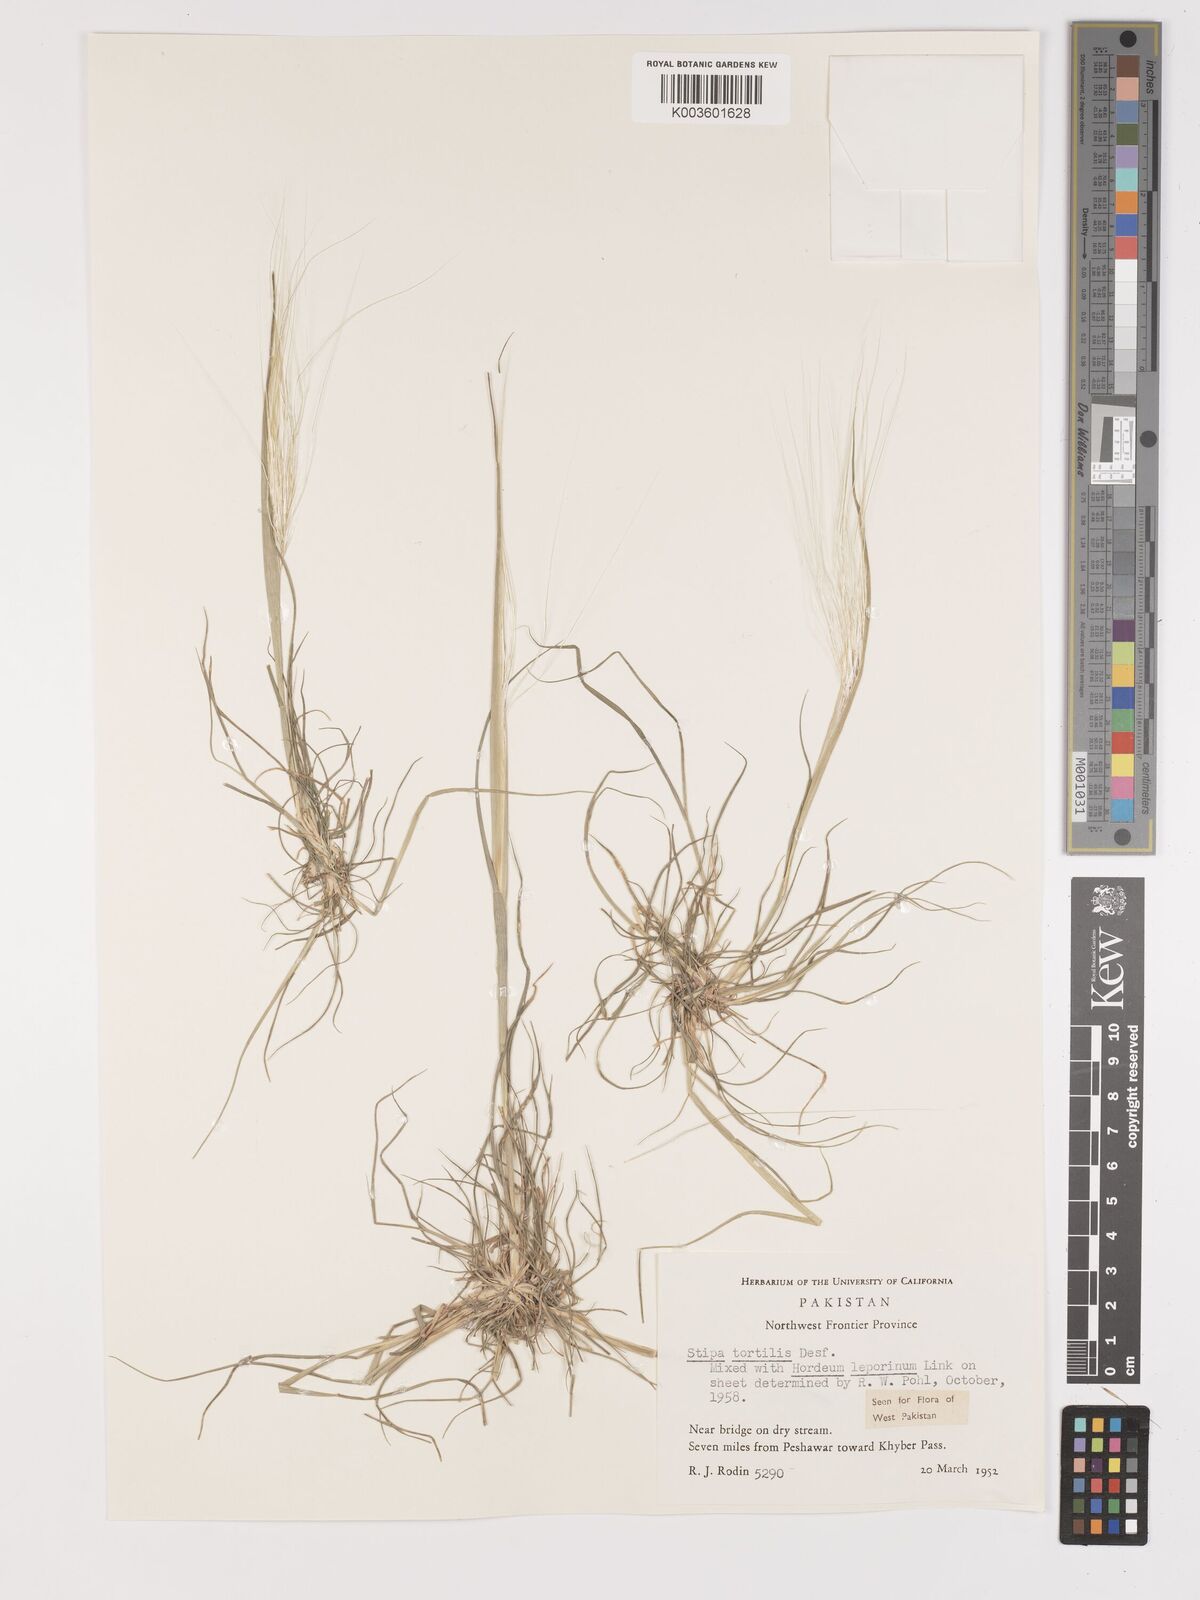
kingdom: Plantae
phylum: Tracheophyta
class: Liliopsida
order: Poales
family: Poaceae
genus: Stipellula
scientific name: Stipellula capensis
